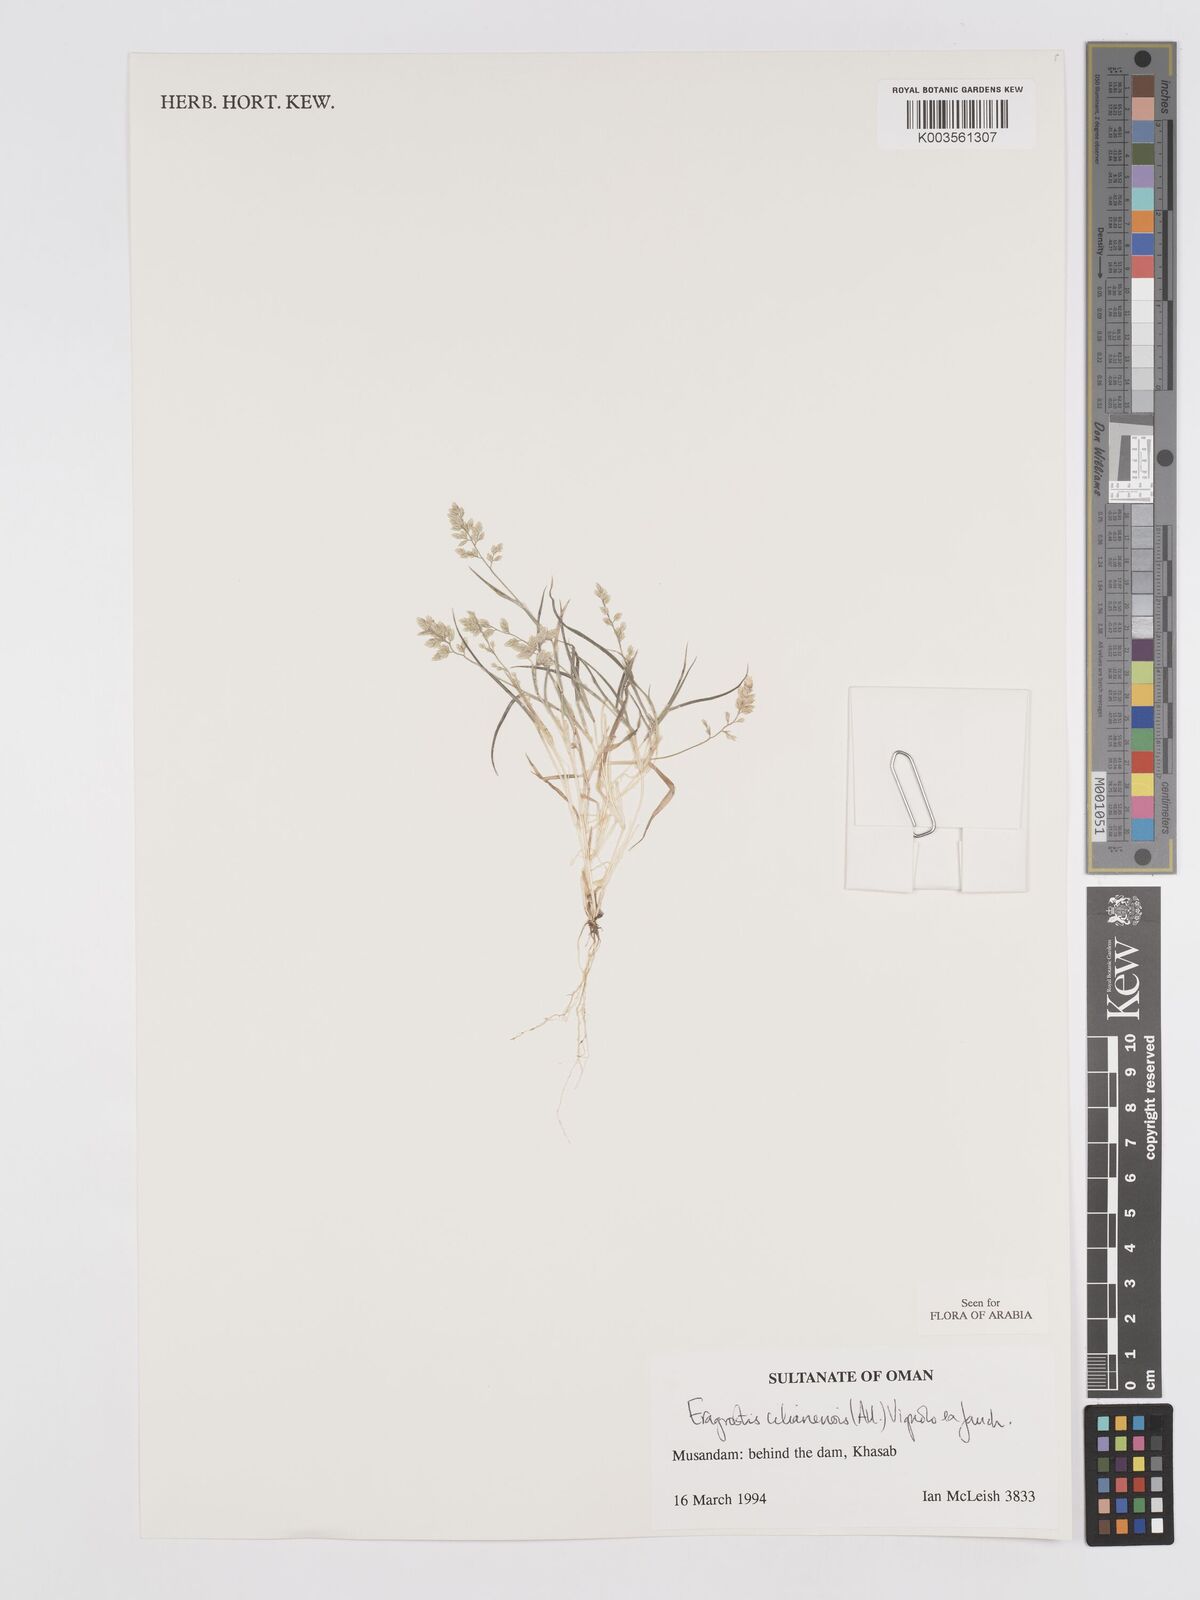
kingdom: Plantae
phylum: Tracheophyta
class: Liliopsida
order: Poales
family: Poaceae
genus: Eragrostis
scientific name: Eragrostis cilianensis
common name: Stinkgrass
